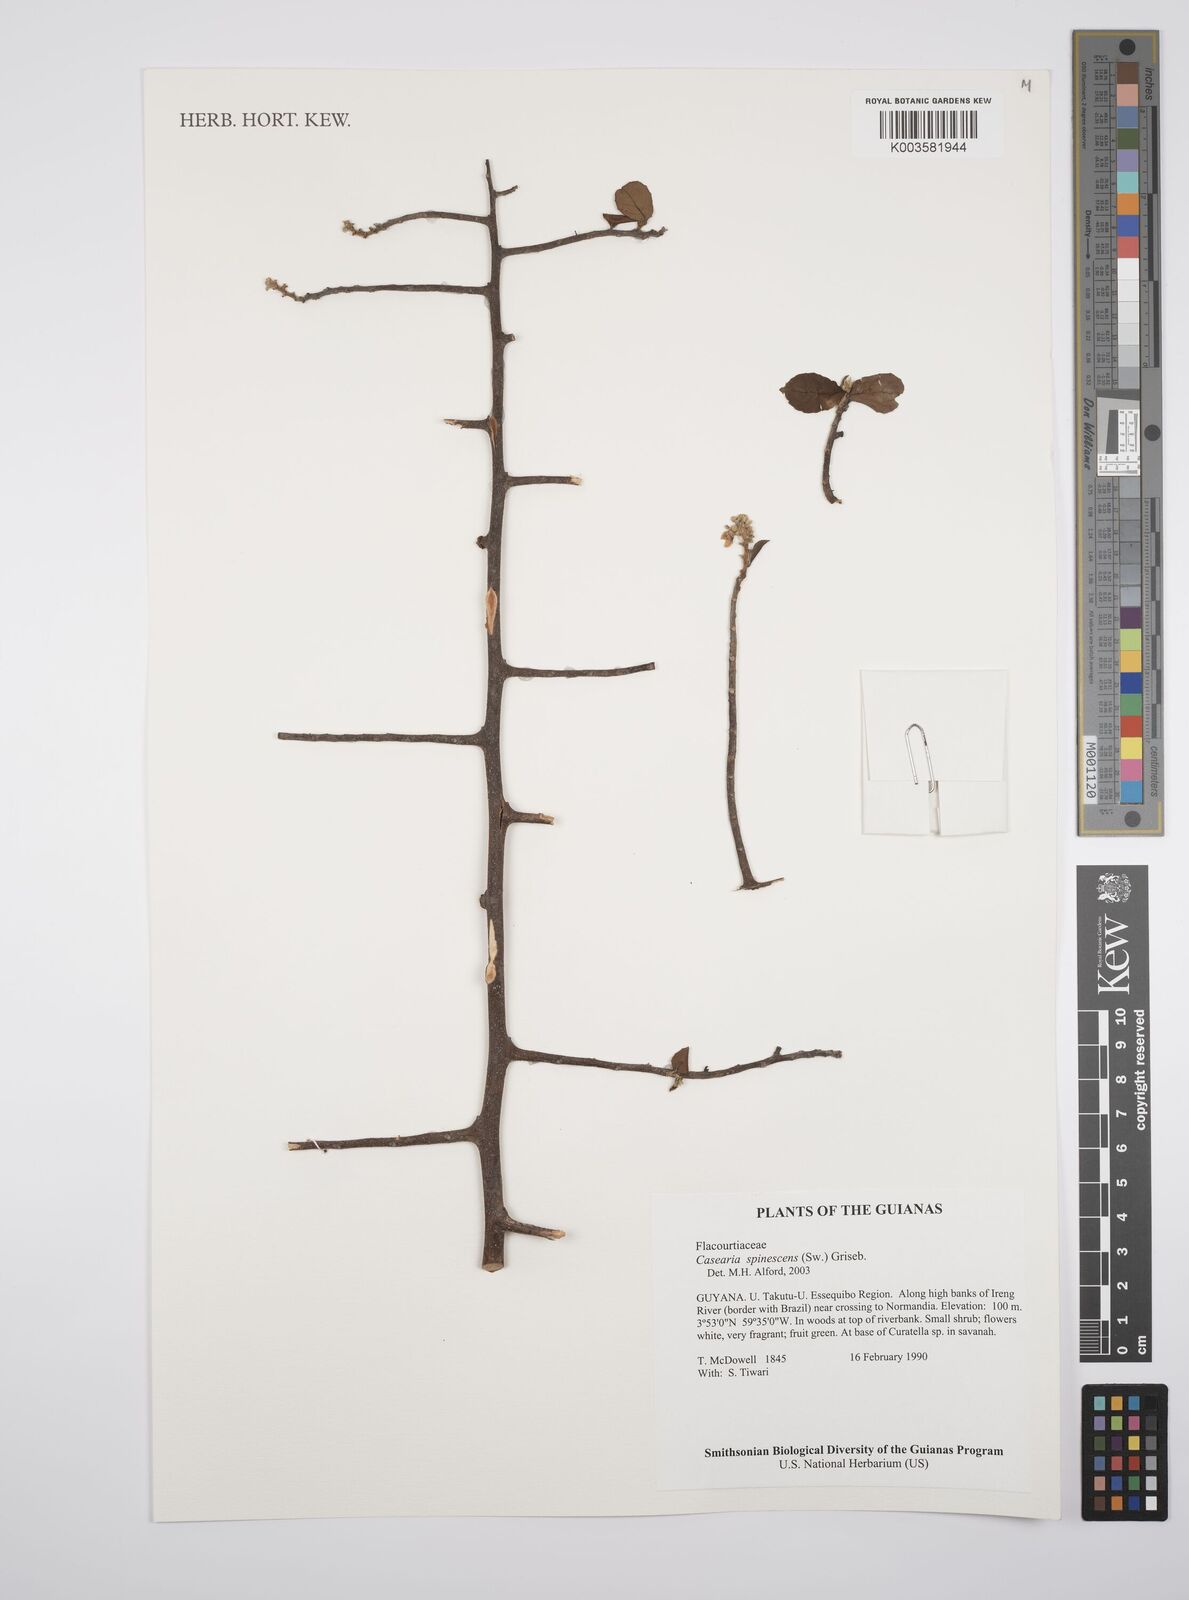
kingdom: Plantae
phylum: Tracheophyta
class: Magnoliopsida
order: Malpighiales
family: Salicaceae
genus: Casearia
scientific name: Casearia spinescens
